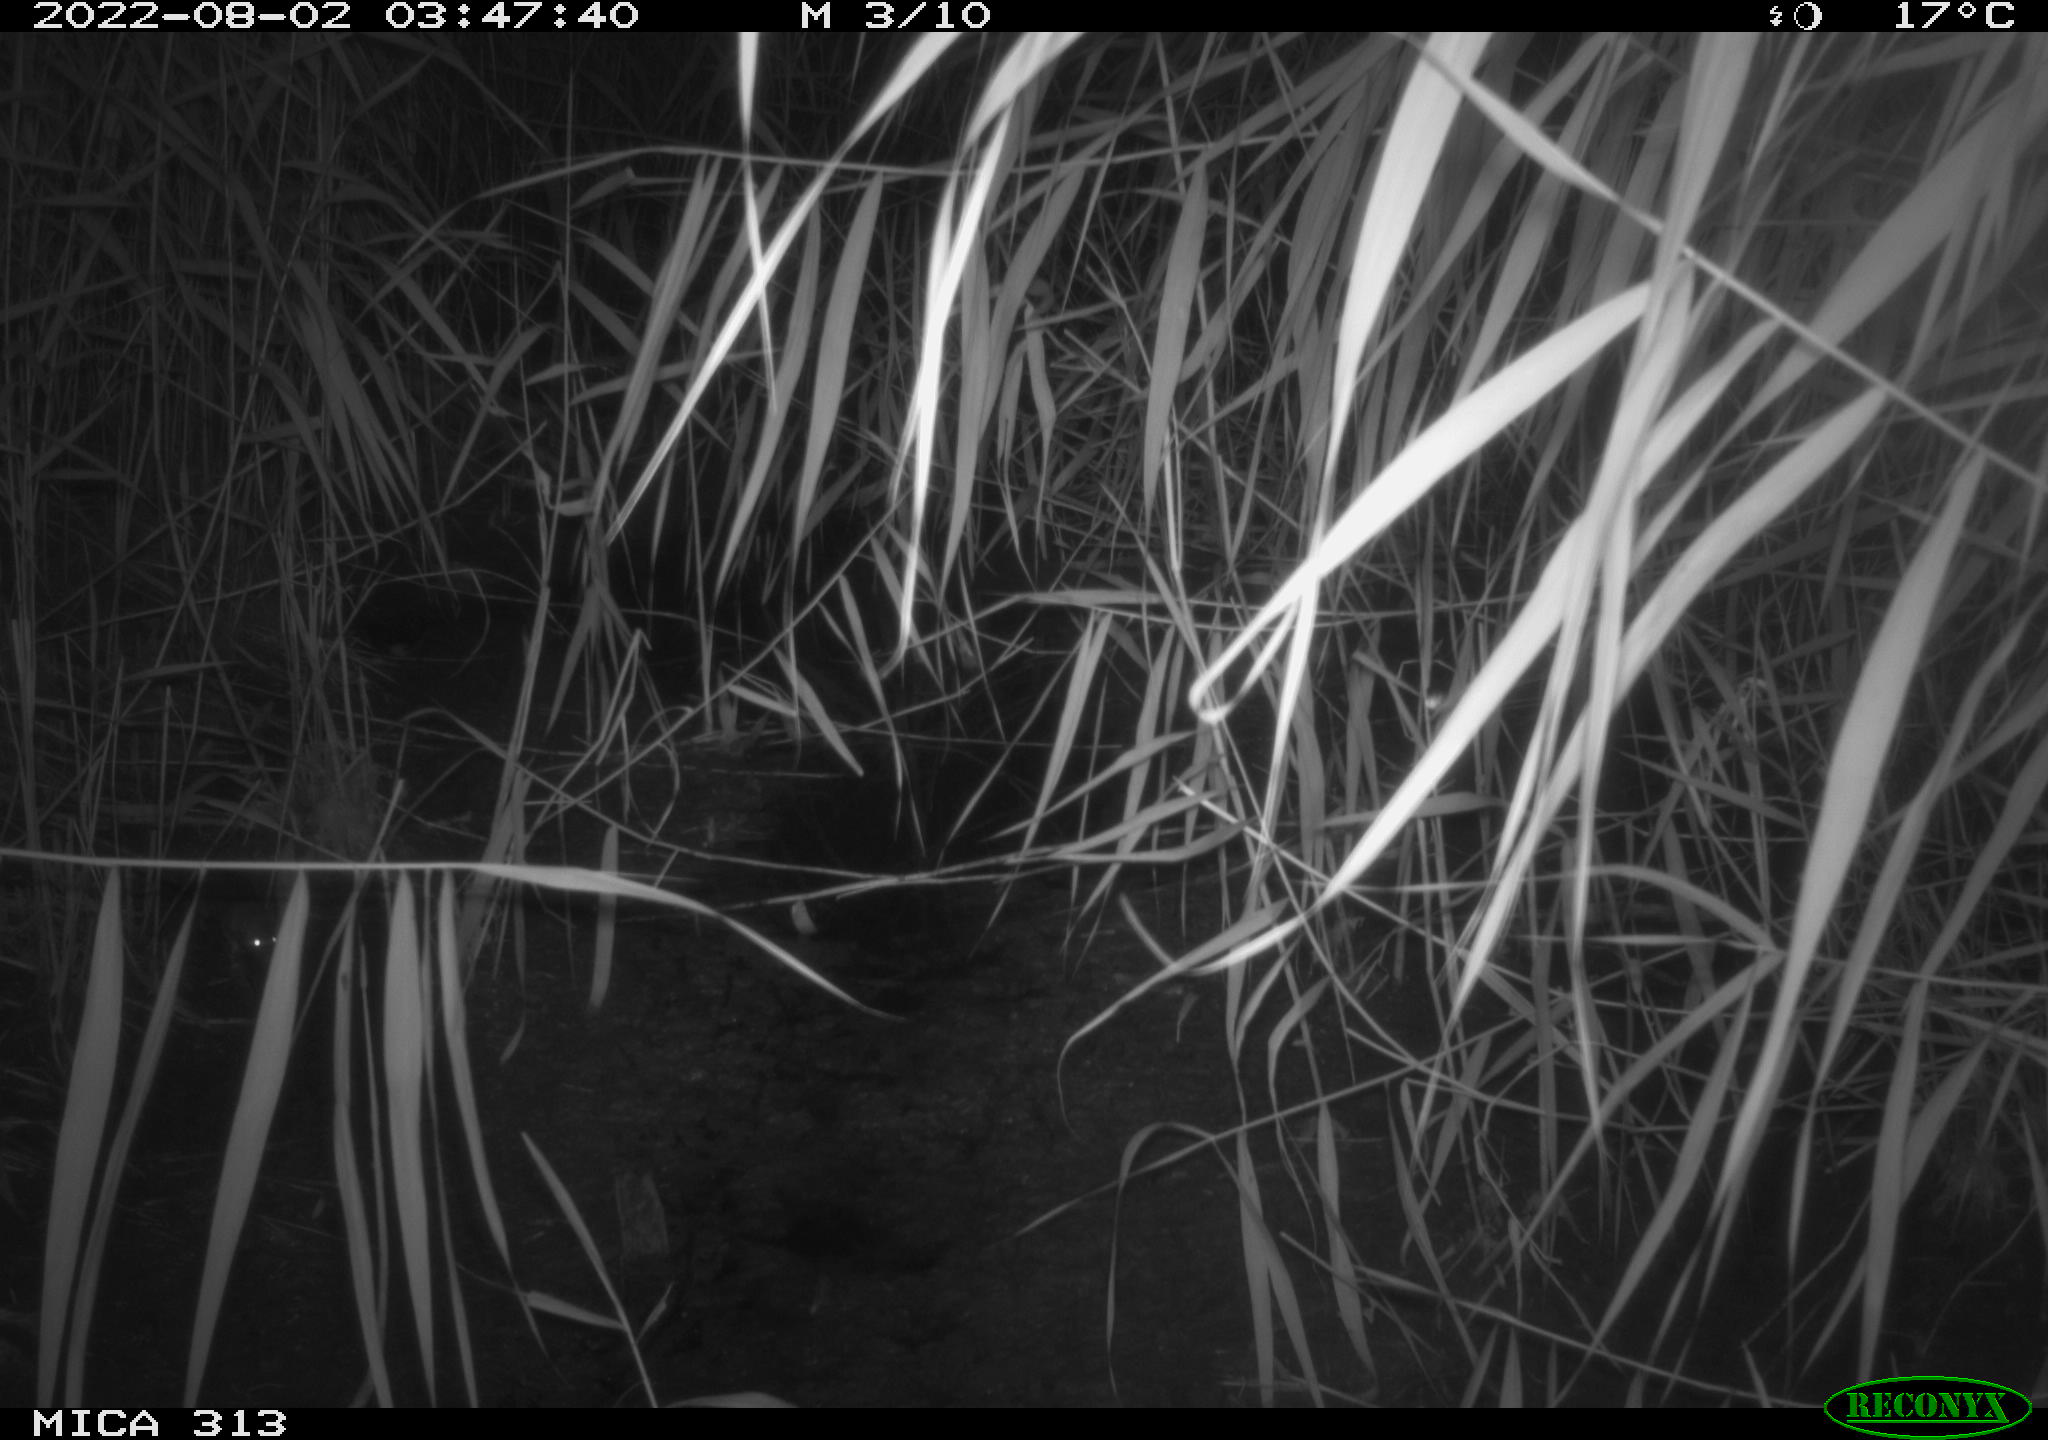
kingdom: Animalia
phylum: Chordata
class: Mammalia
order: Rodentia
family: Muridae
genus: Rattus
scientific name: Rattus norvegicus
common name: Brown rat
